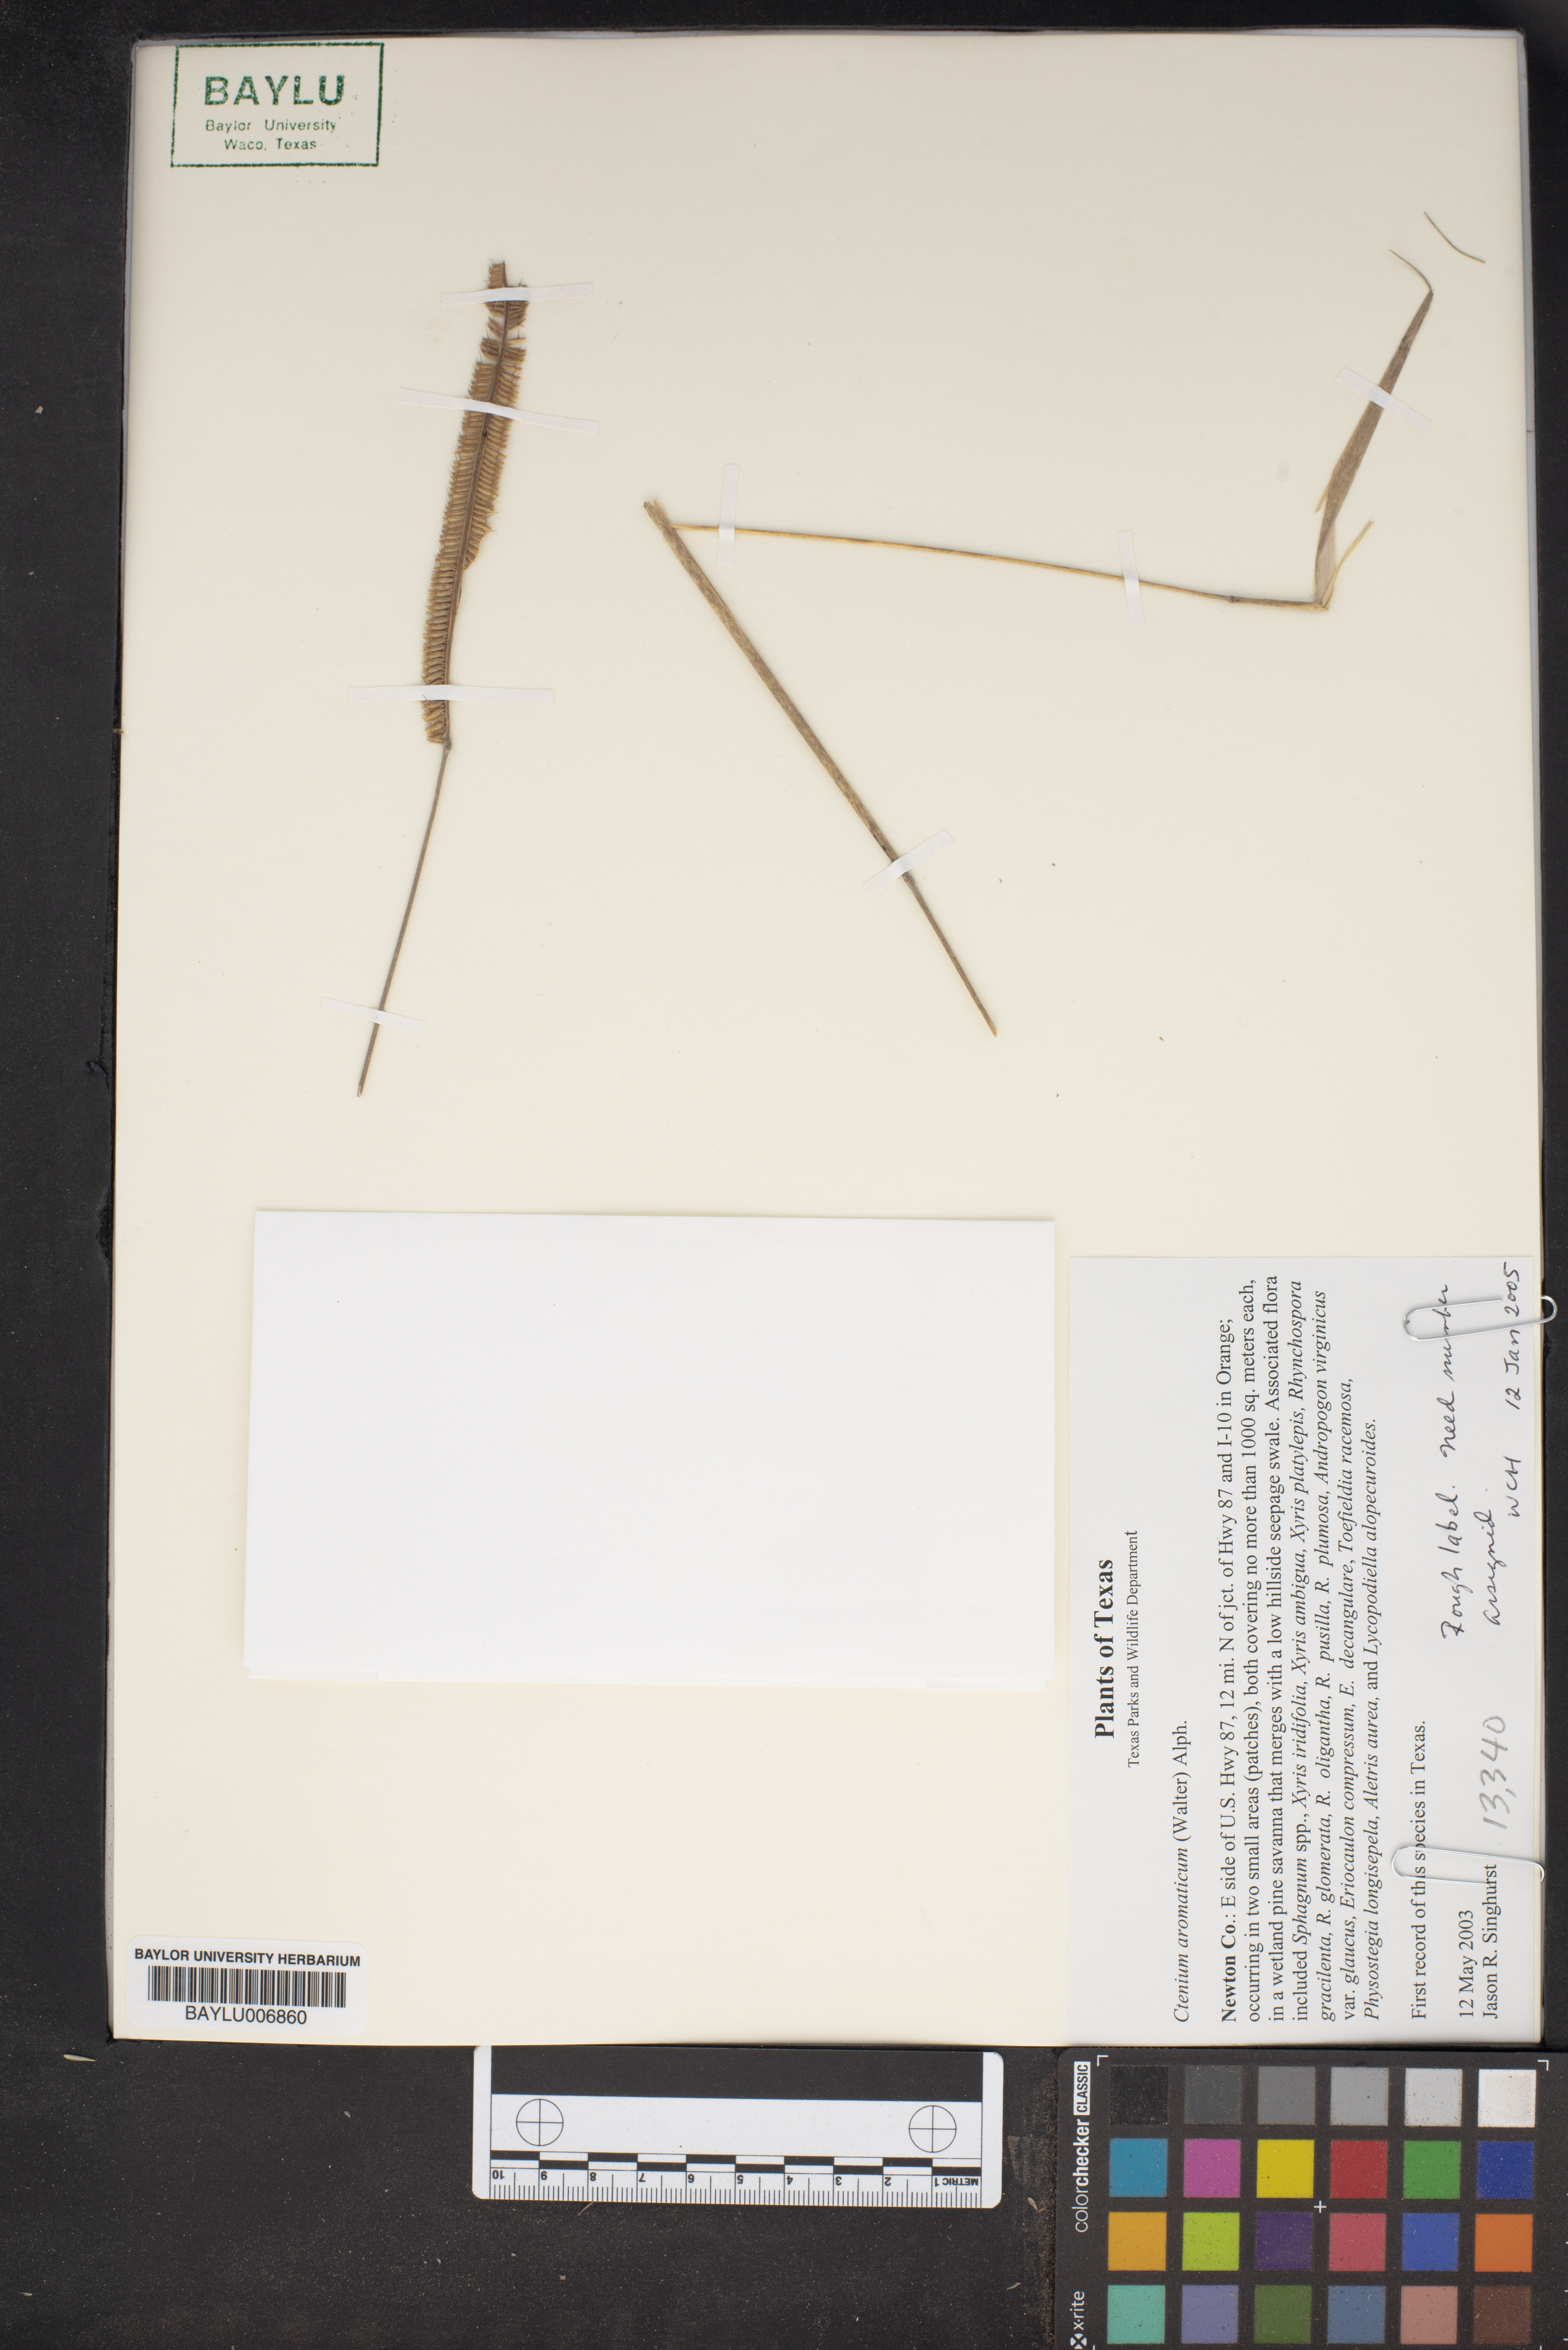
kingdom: Plantae
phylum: Tracheophyta
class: Liliopsida
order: Poales
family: Poaceae
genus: Ctenium
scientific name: Ctenium
